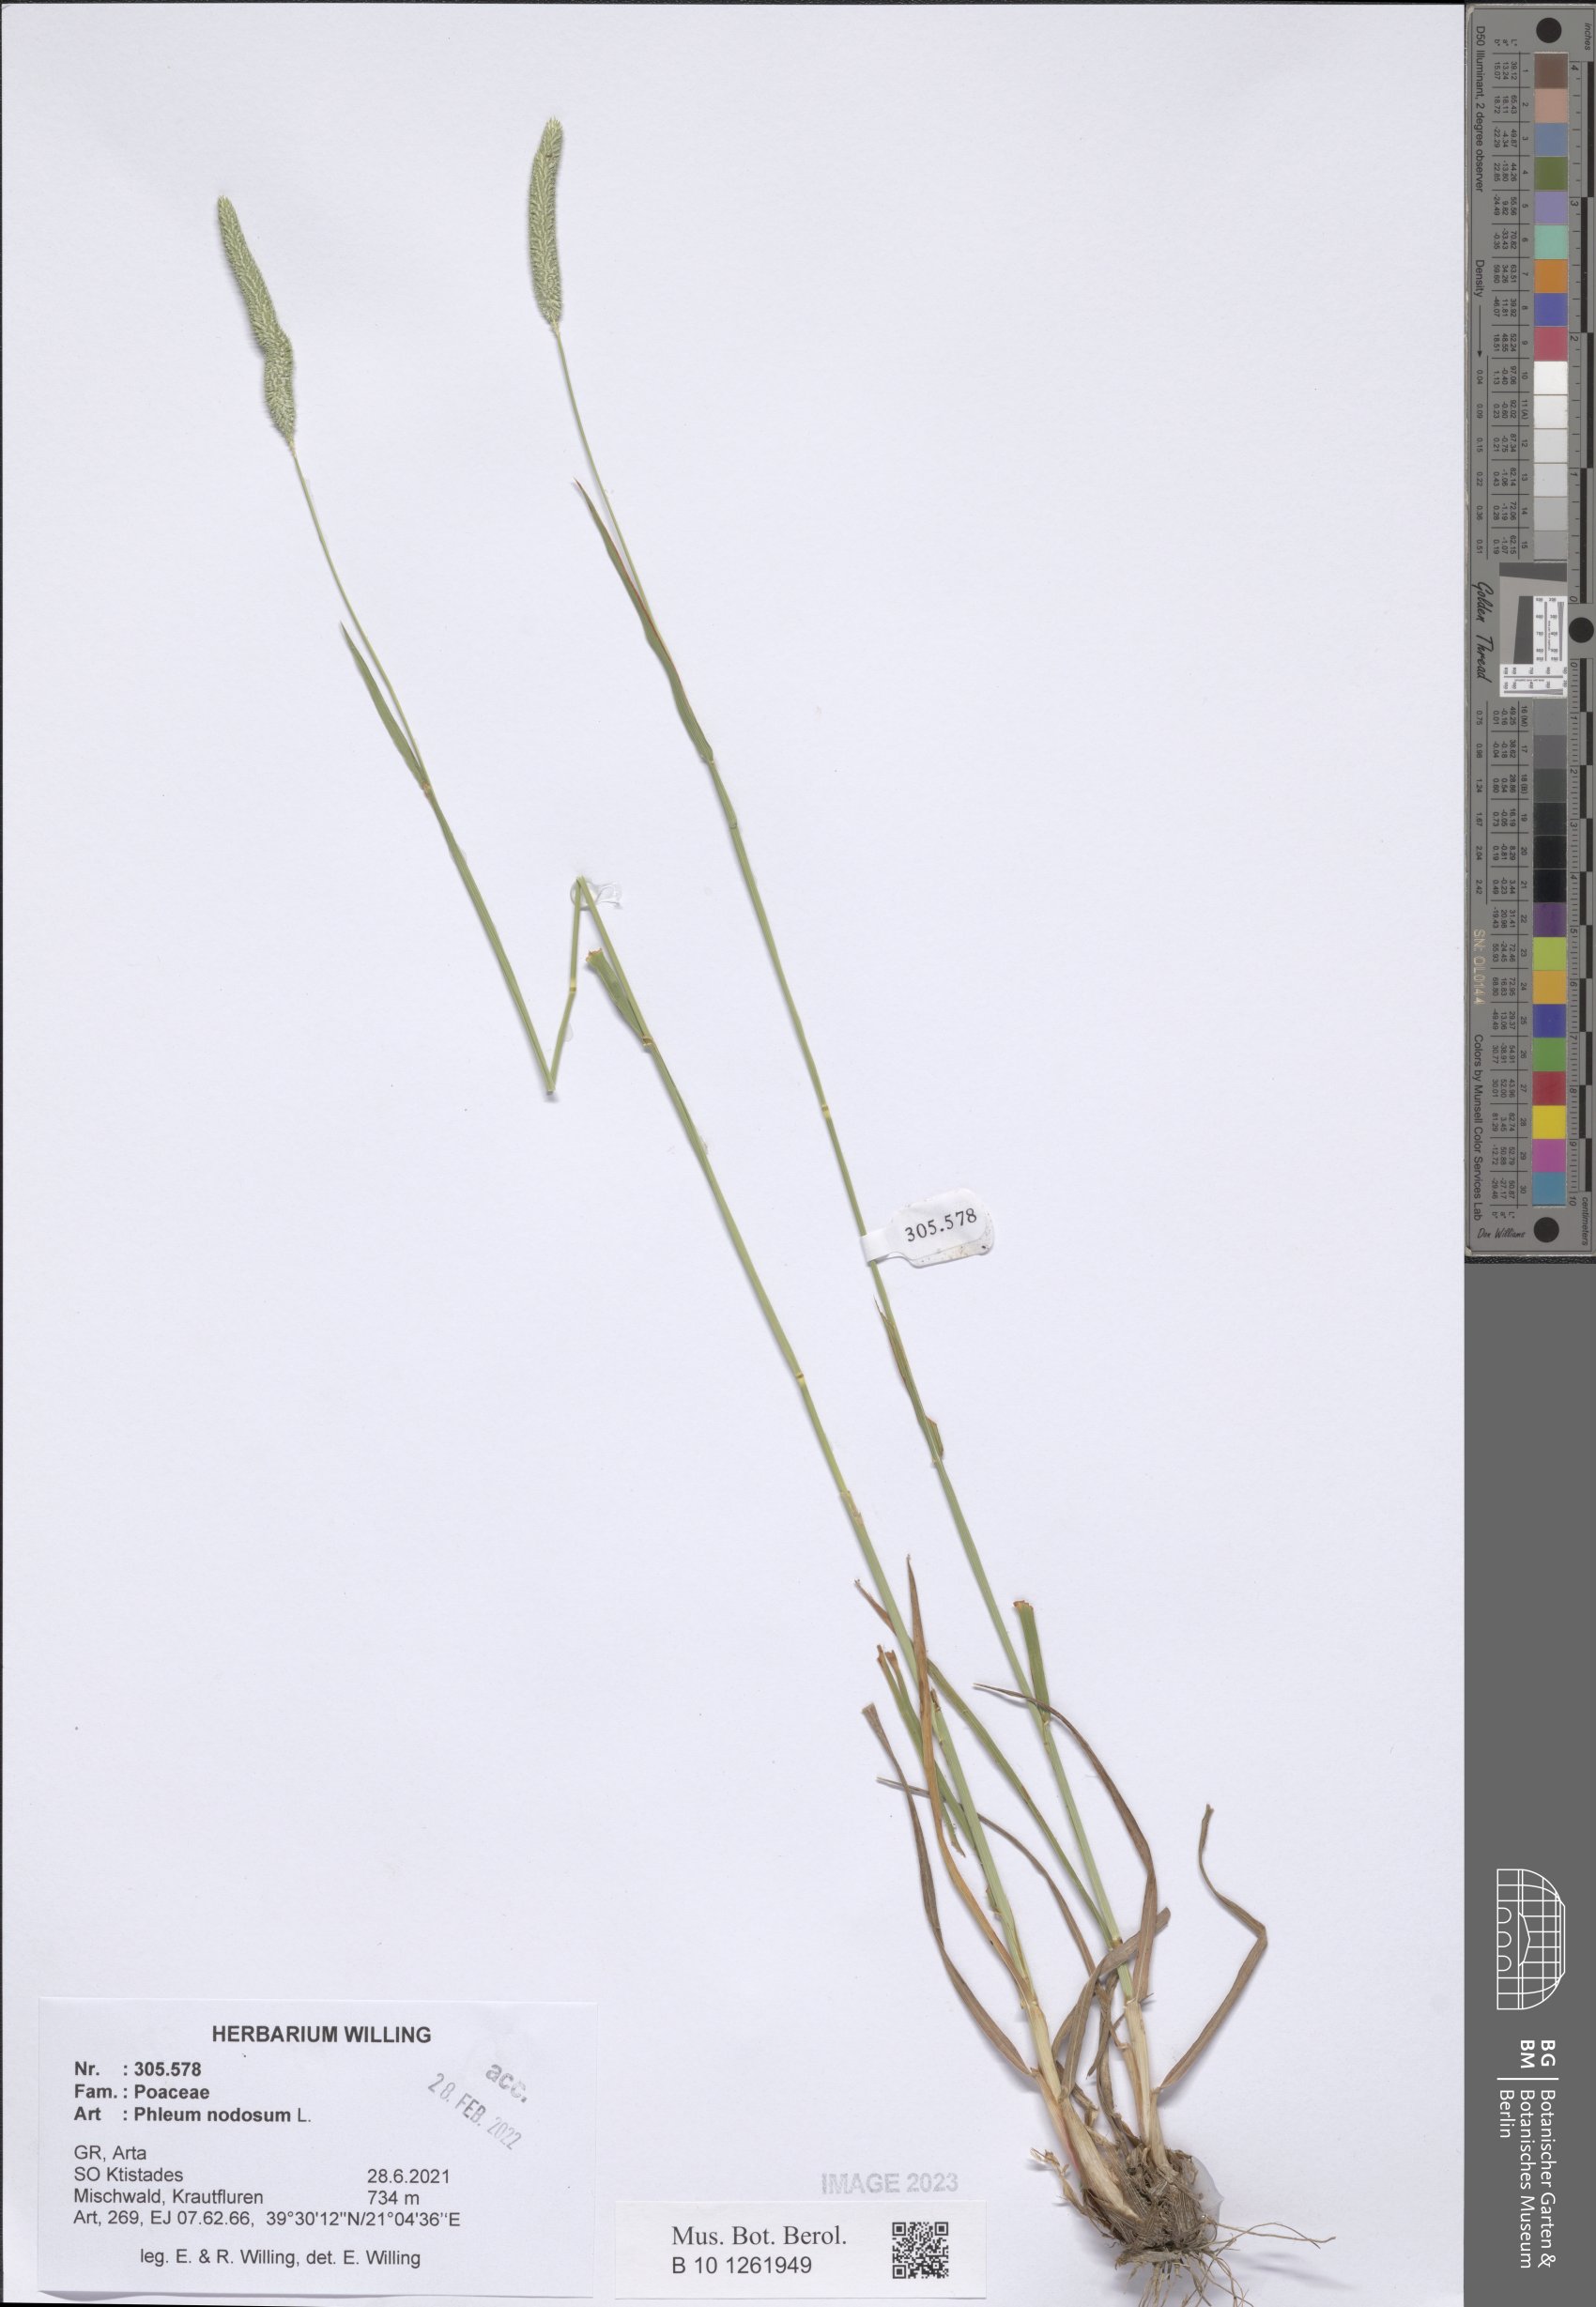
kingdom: Plantae
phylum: Tracheophyta
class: Liliopsida
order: Poales
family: Poaceae
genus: Phleum
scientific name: Phleum pratense
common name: Timothy grass
